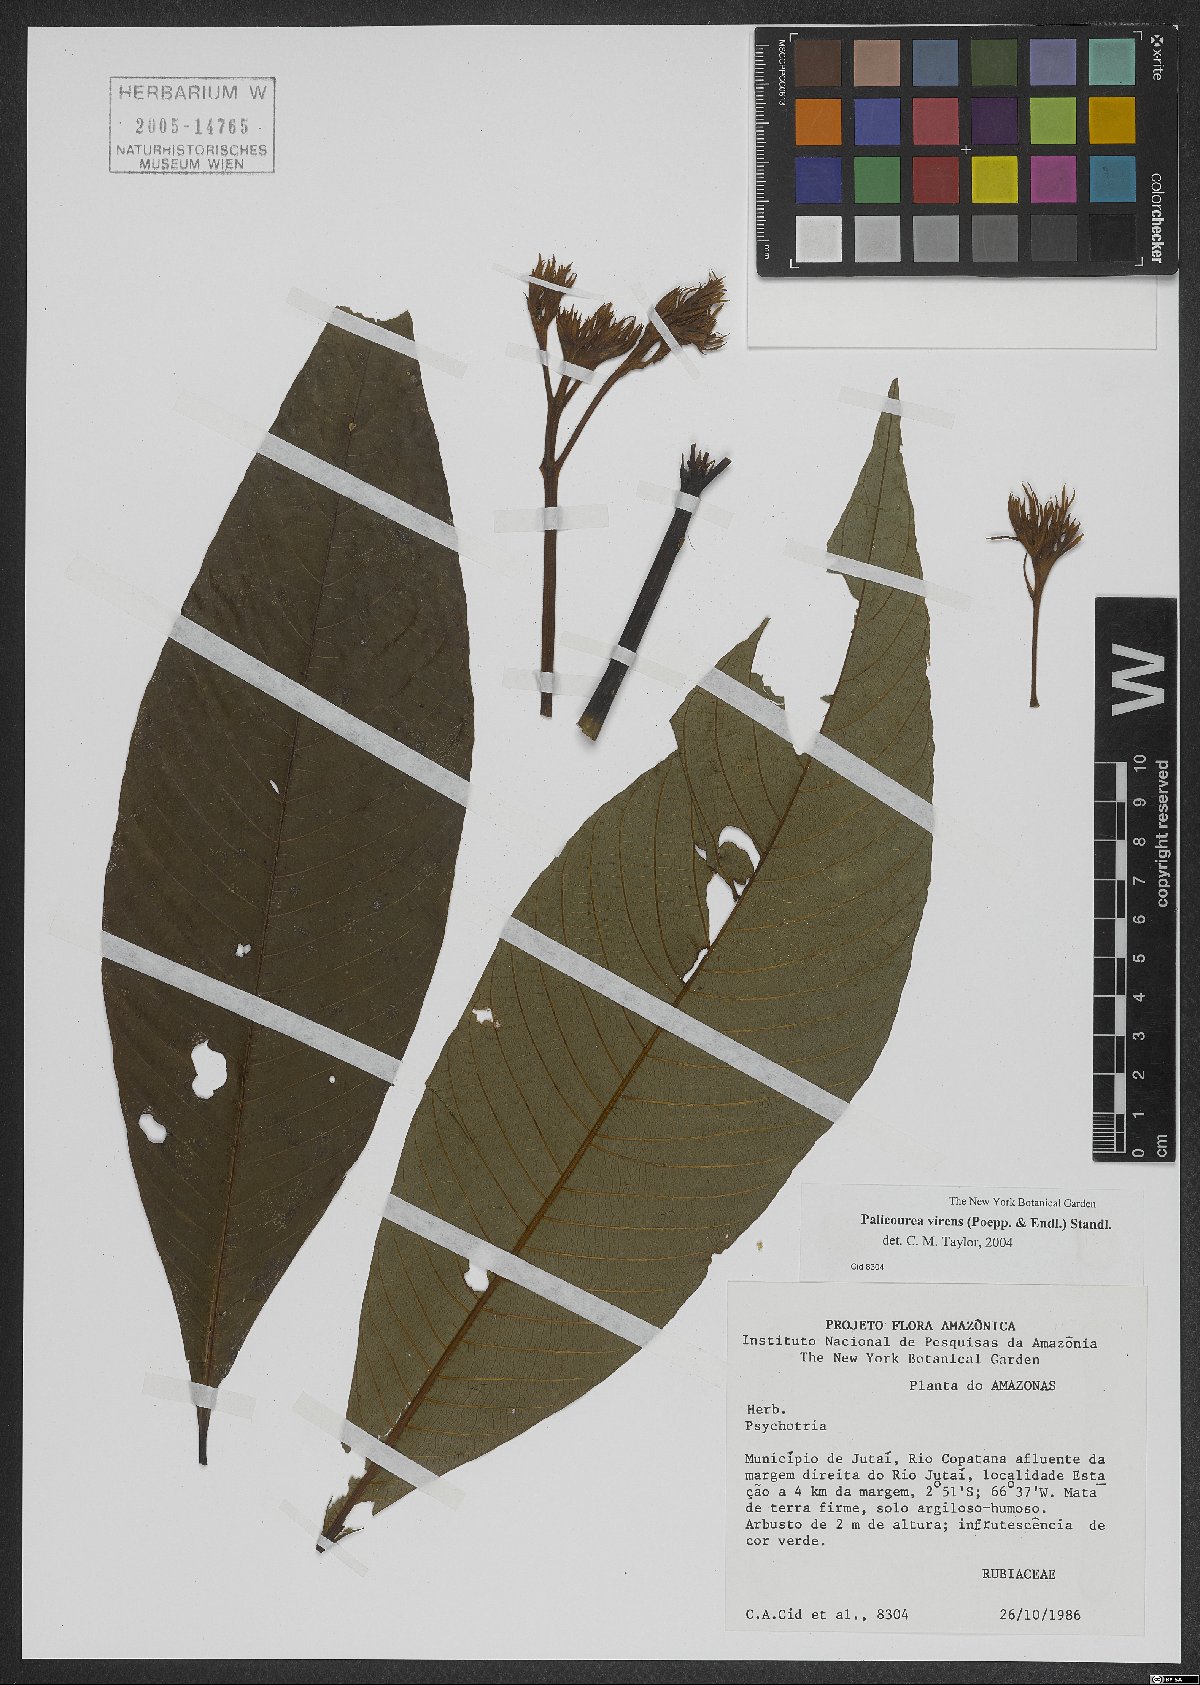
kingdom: Plantae
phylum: Tracheophyta
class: Magnoliopsida
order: Gentianales
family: Rubiaceae
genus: Palicourea
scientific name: Palicourea virens
